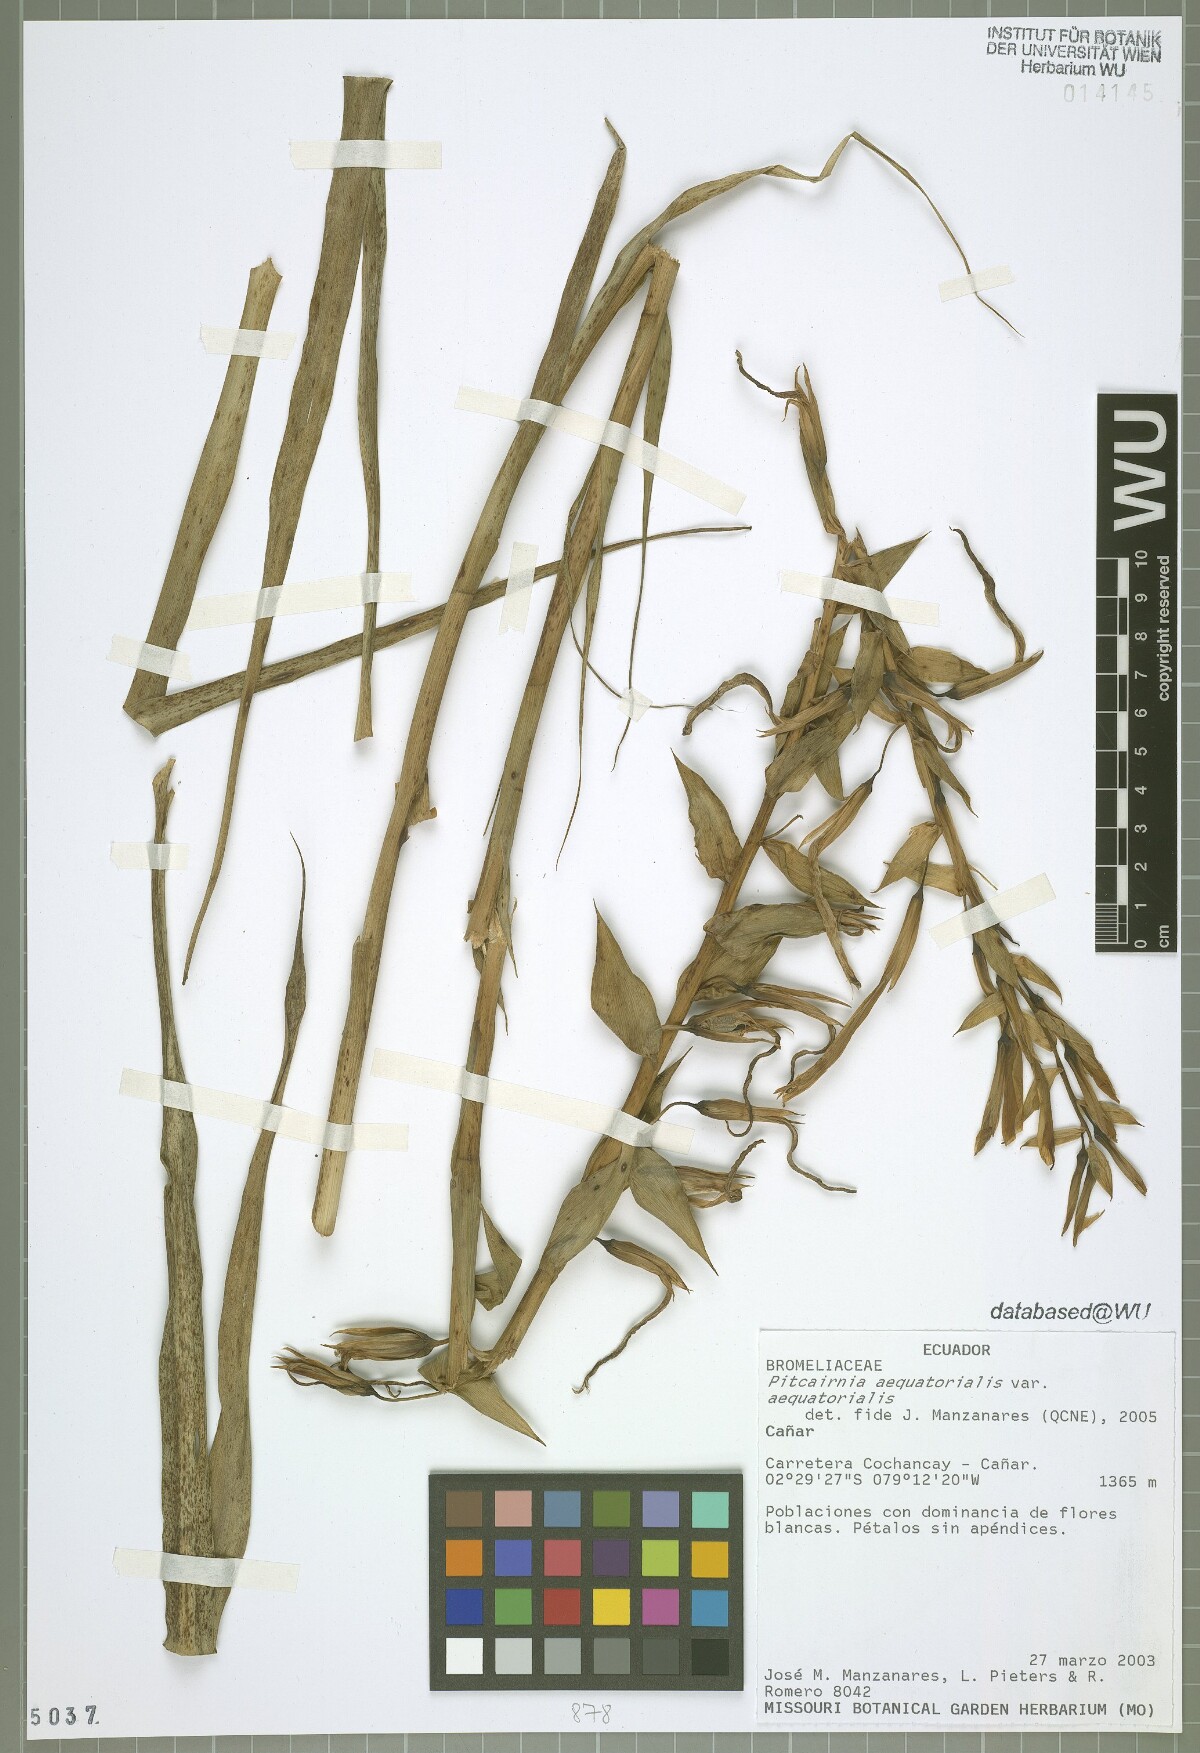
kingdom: Plantae
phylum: Tracheophyta
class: Liliopsida
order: Poales
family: Bromeliaceae
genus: Pitcairnia
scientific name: Pitcairnia aequatorialis
